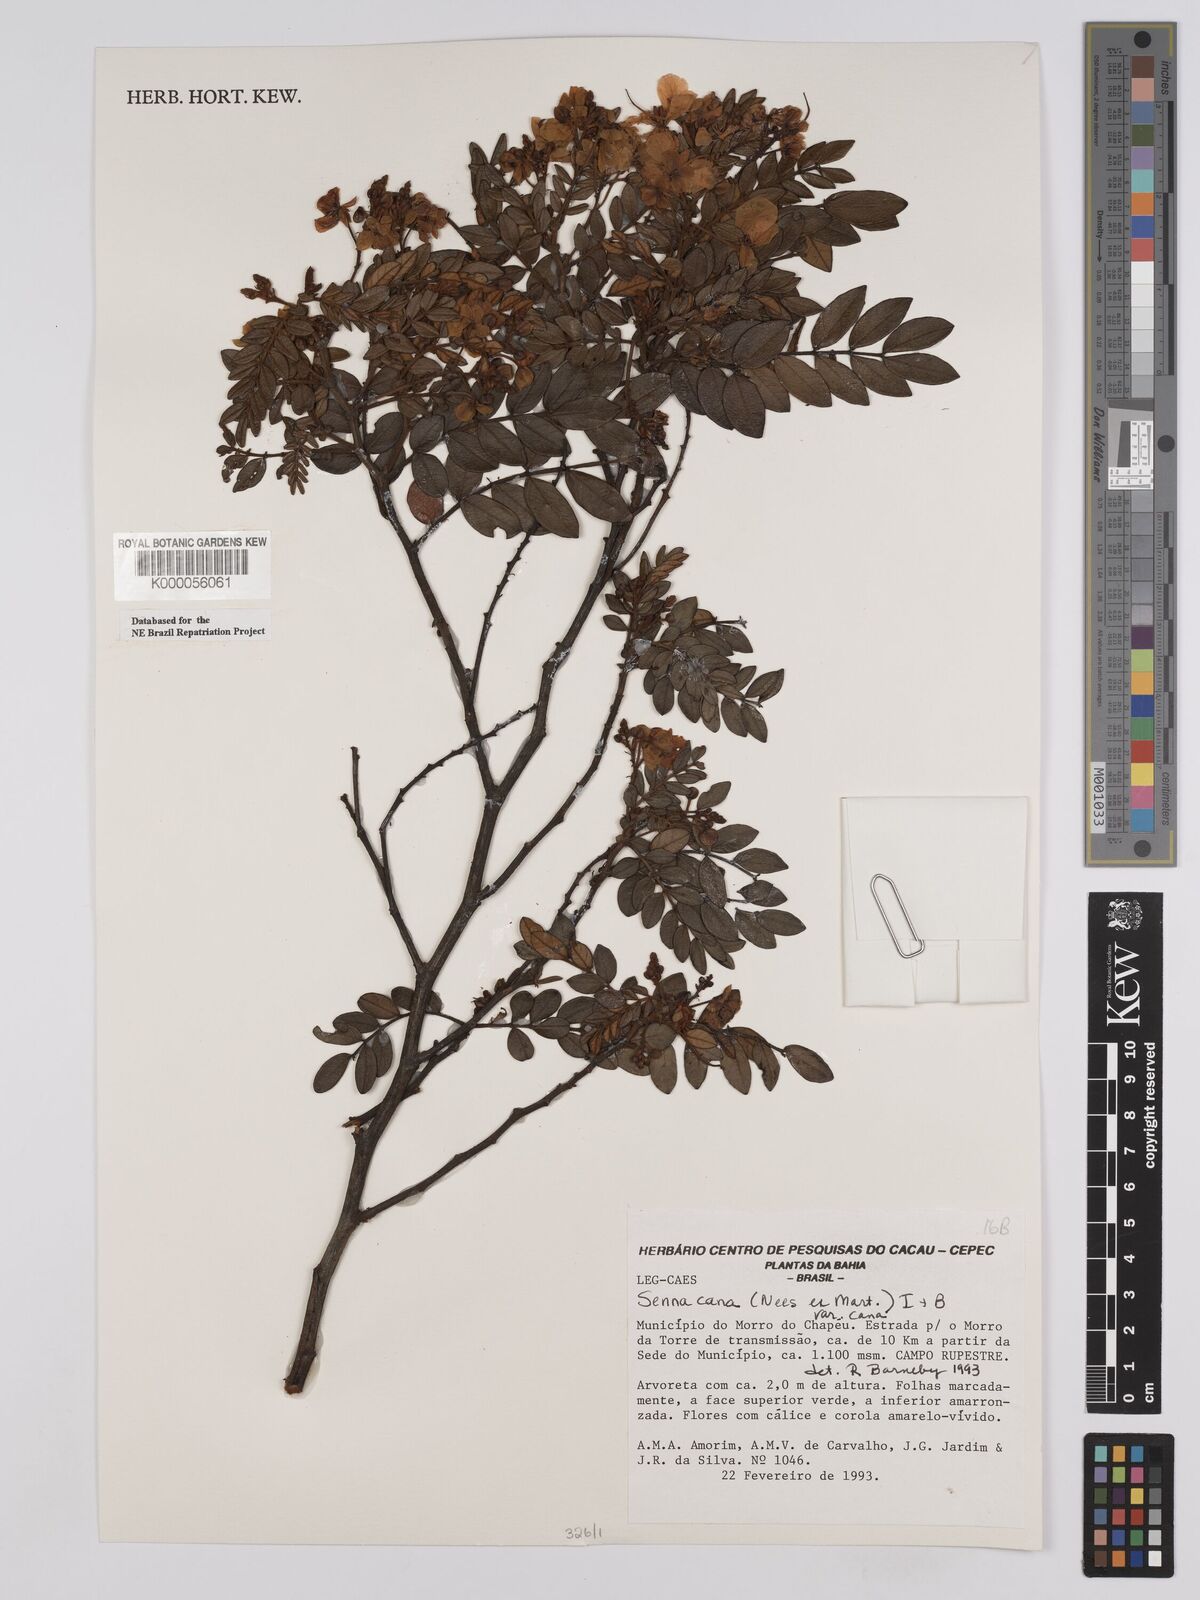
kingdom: Plantae
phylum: Tracheophyta
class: Magnoliopsida
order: Fabales
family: Fabaceae
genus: Senna
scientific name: Senna cana
